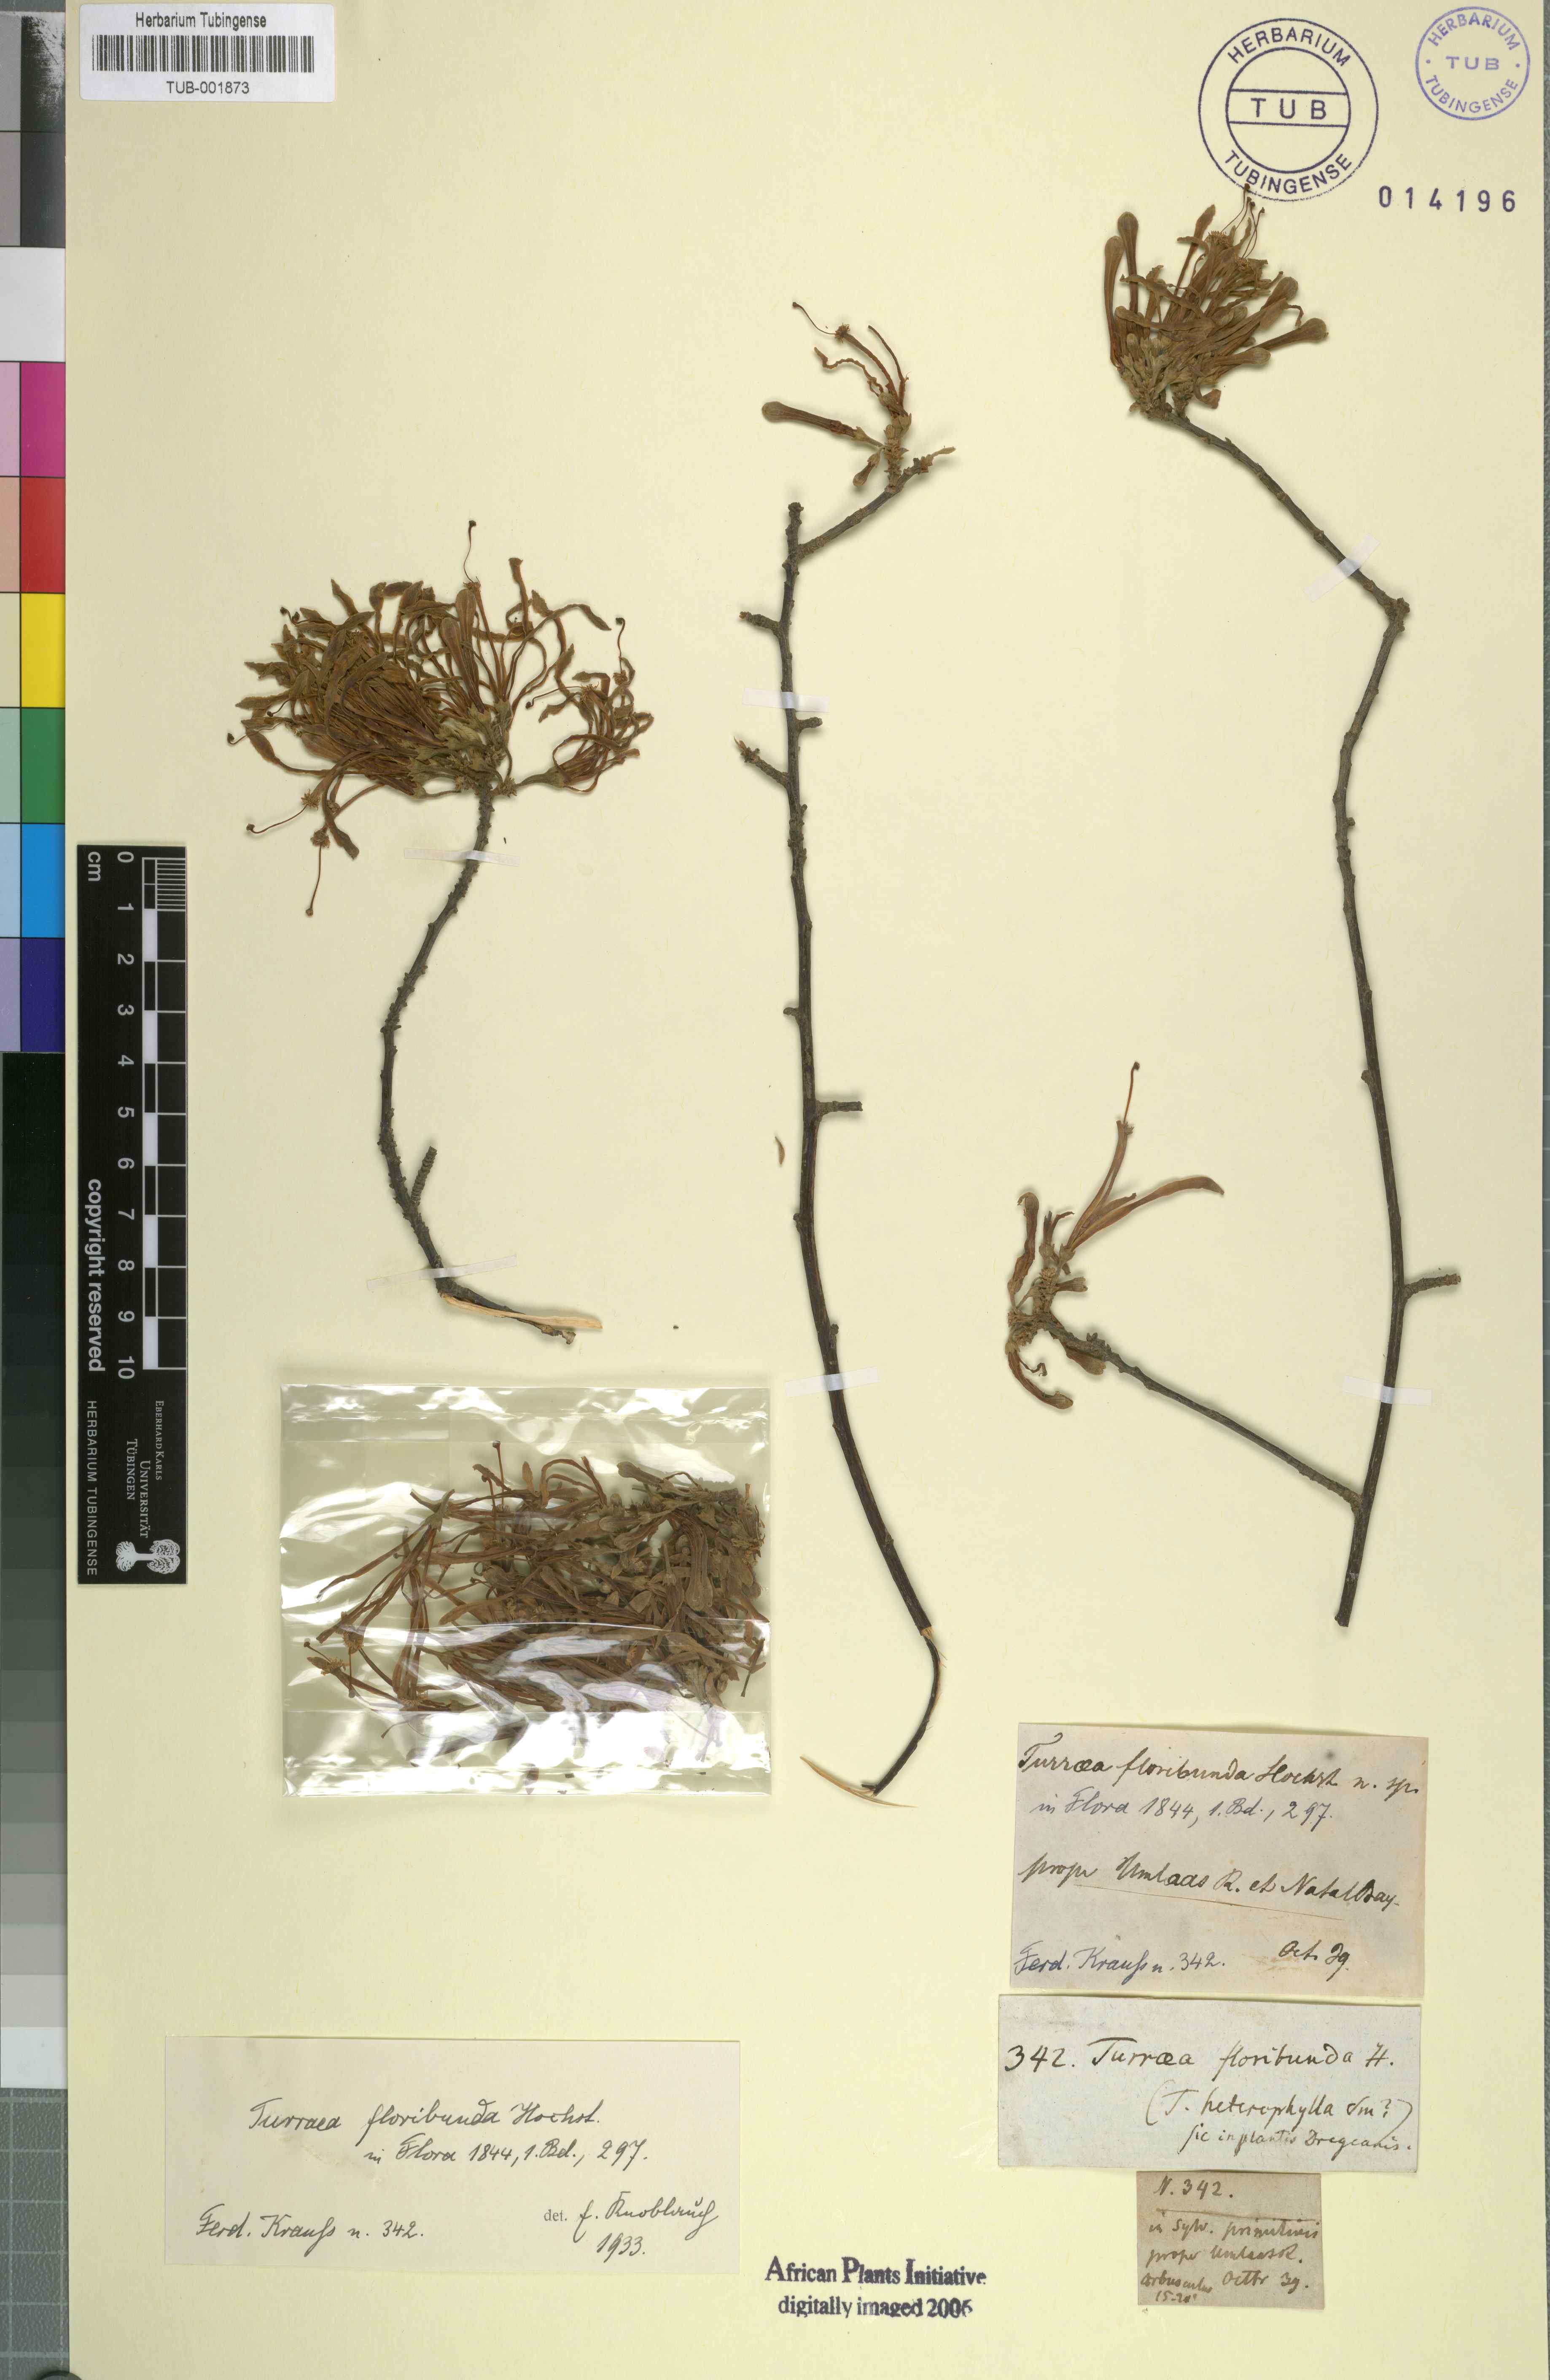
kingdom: Plantae
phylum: Tracheophyta
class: Magnoliopsida
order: Sapindales
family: Meliaceae
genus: Turraea
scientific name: Turraea floribunda
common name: Honeysuckle tree
